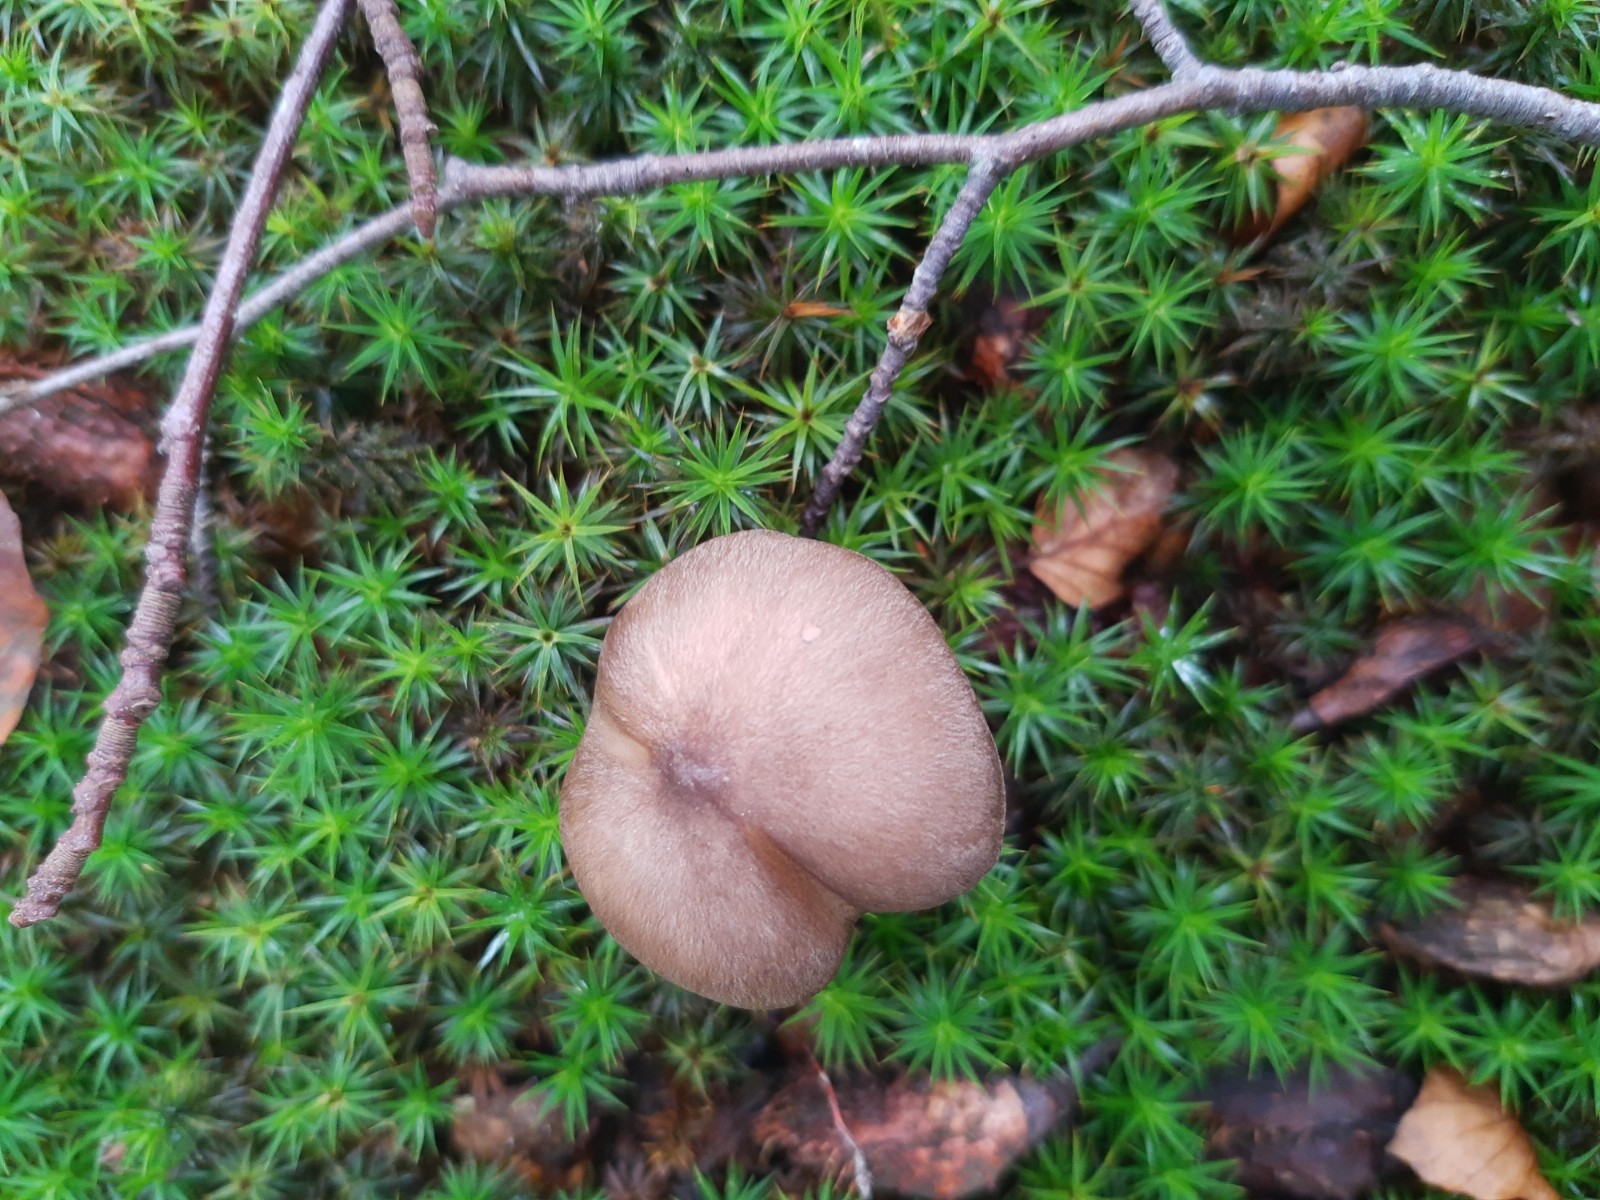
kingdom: Fungi
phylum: Basidiomycota
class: Agaricomycetes
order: Agaricales
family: Tricholomataceae
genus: Megacollybia
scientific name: Megacollybia platyphylla
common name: bredbladet væbnerhat
